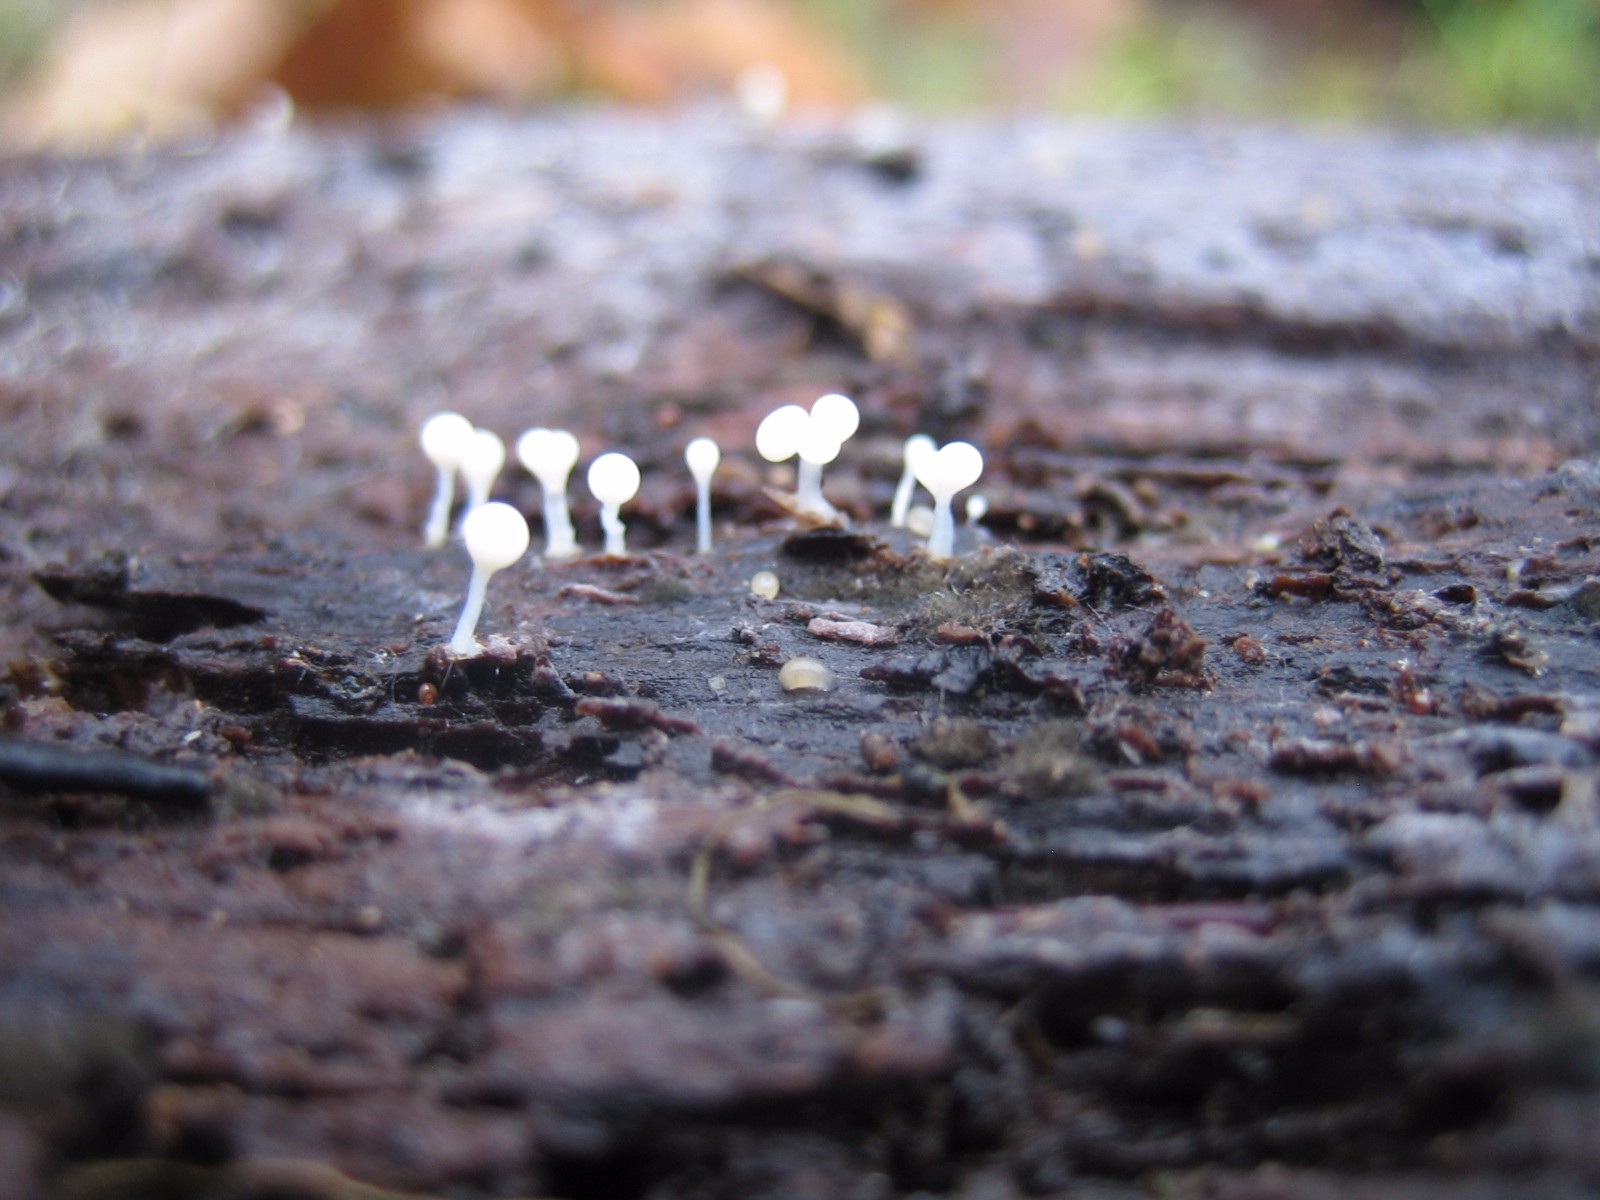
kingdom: Protozoa
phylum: Mycetozoa
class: Myxomycetes
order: Trichiales
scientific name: Trichiales
